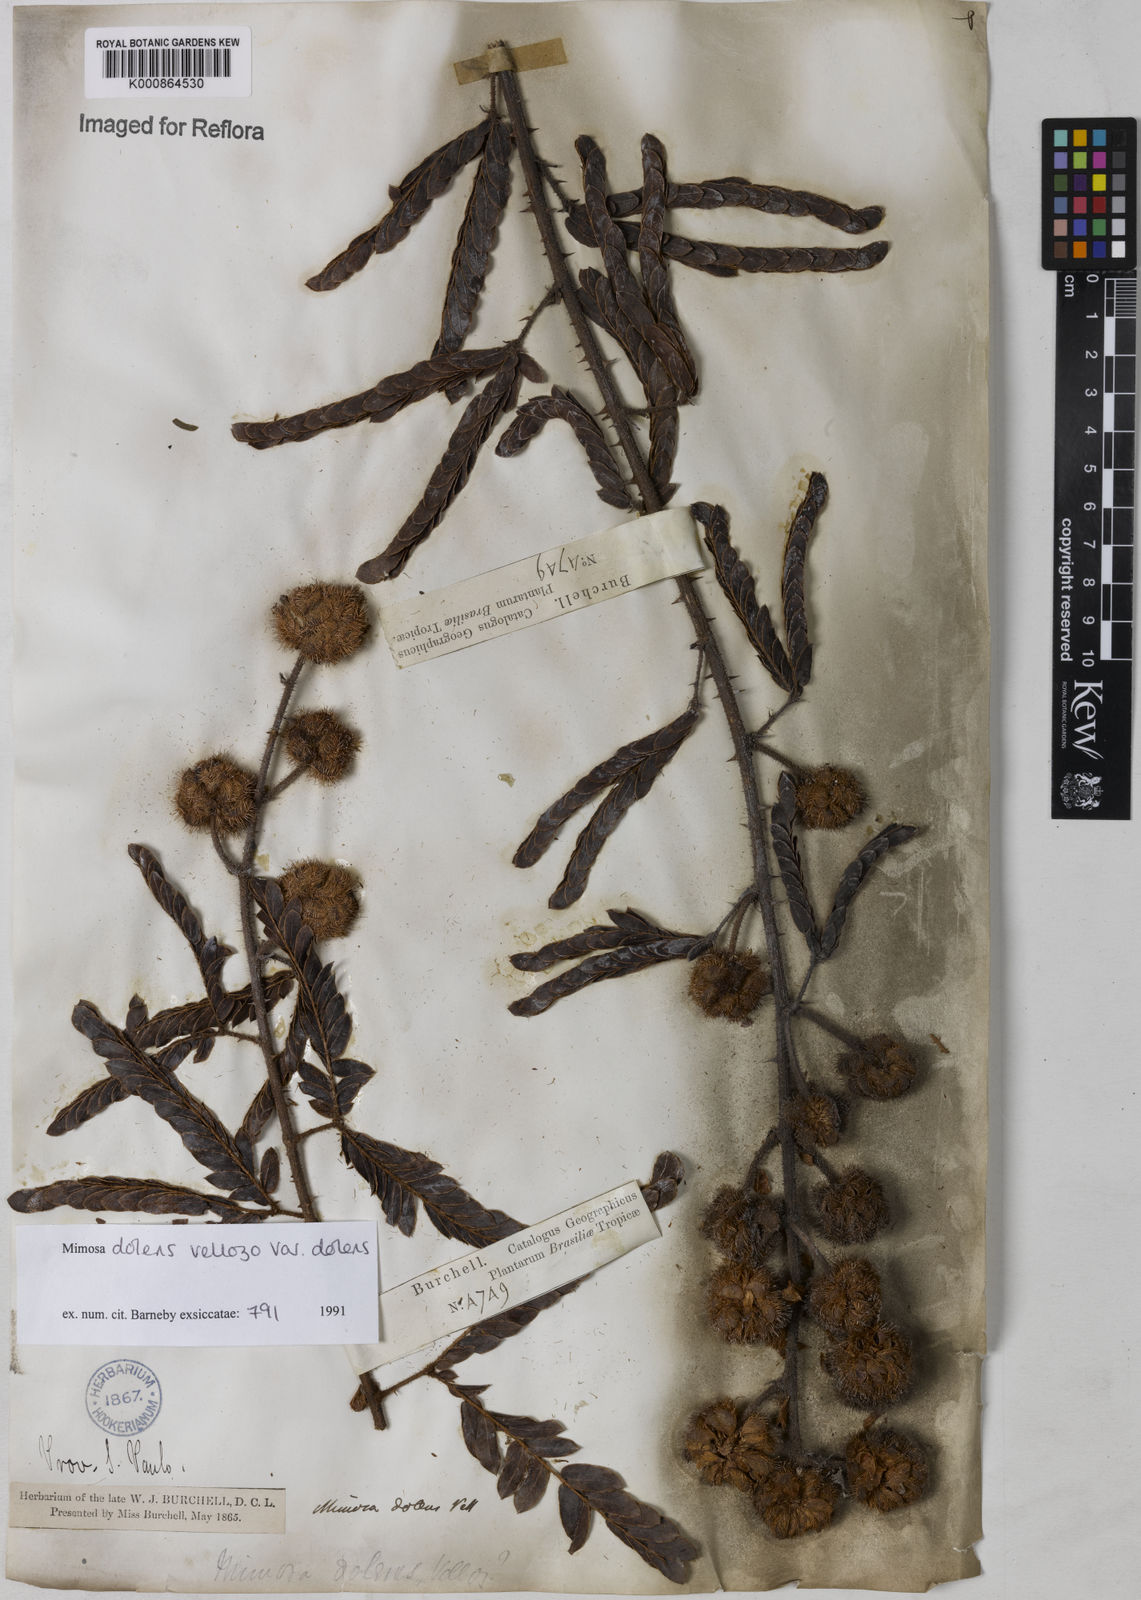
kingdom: Plantae
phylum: Tracheophyta
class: Magnoliopsida
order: Fabales
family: Fabaceae
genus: Mimosa
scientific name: Mimosa dolens
